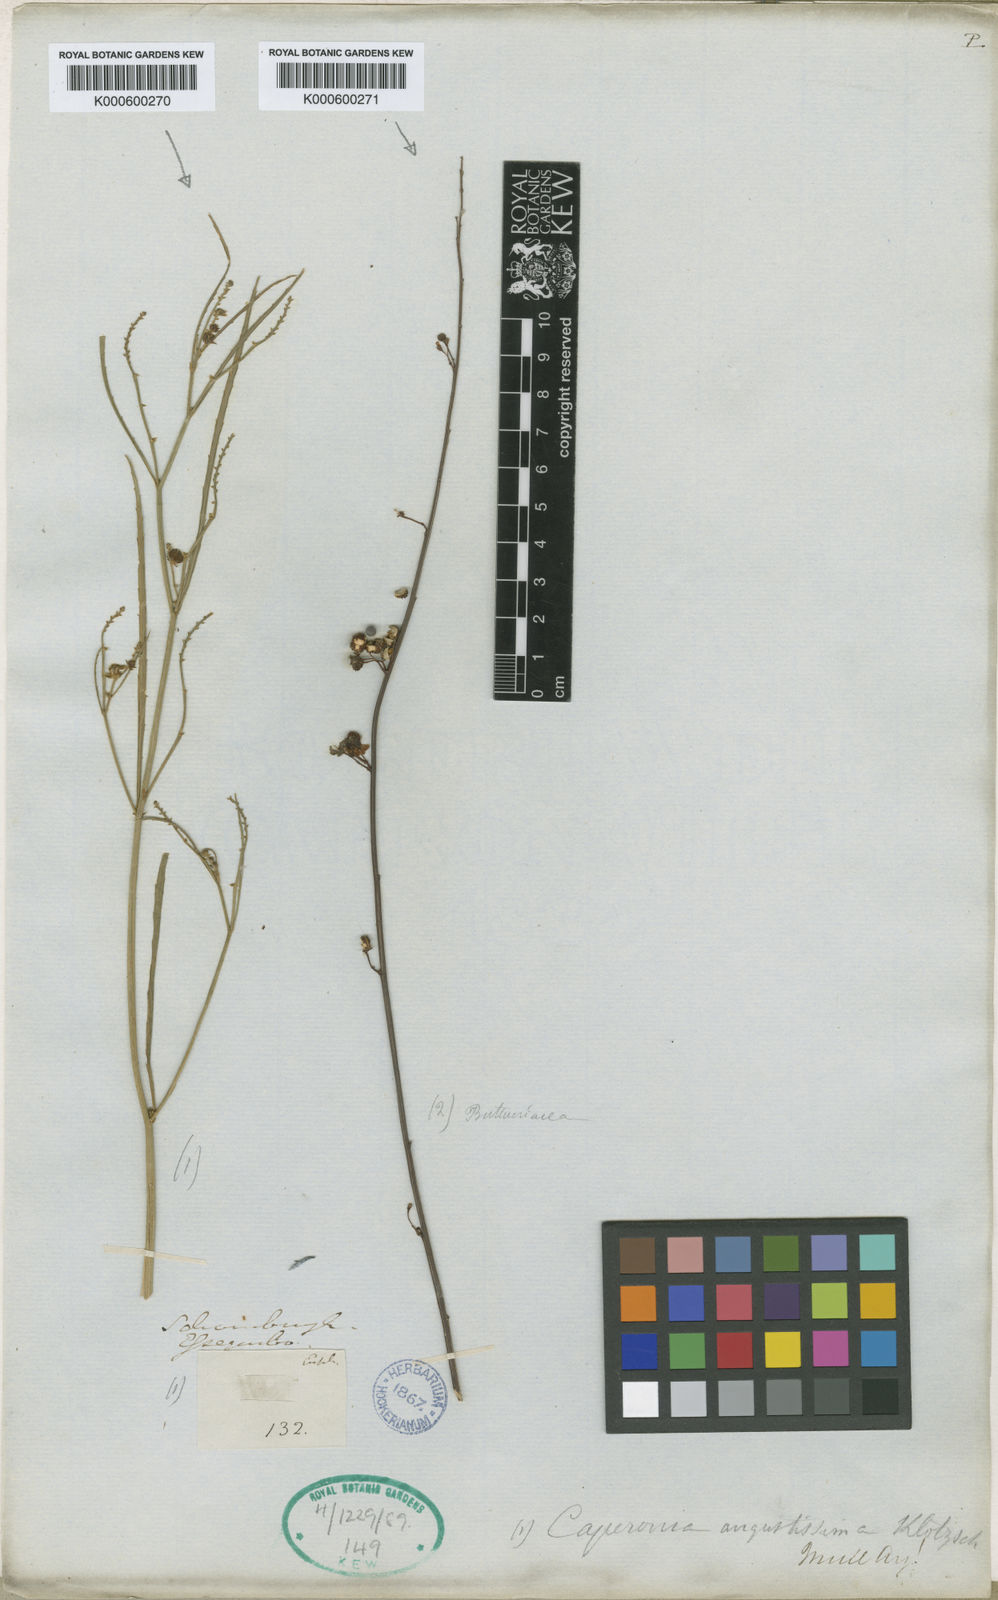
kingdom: Plantae
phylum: Tracheophyta
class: Magnoliopsida
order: Malpighiales
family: Euphorbiaceae
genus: Caperonia
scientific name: Caperonia angustissima
